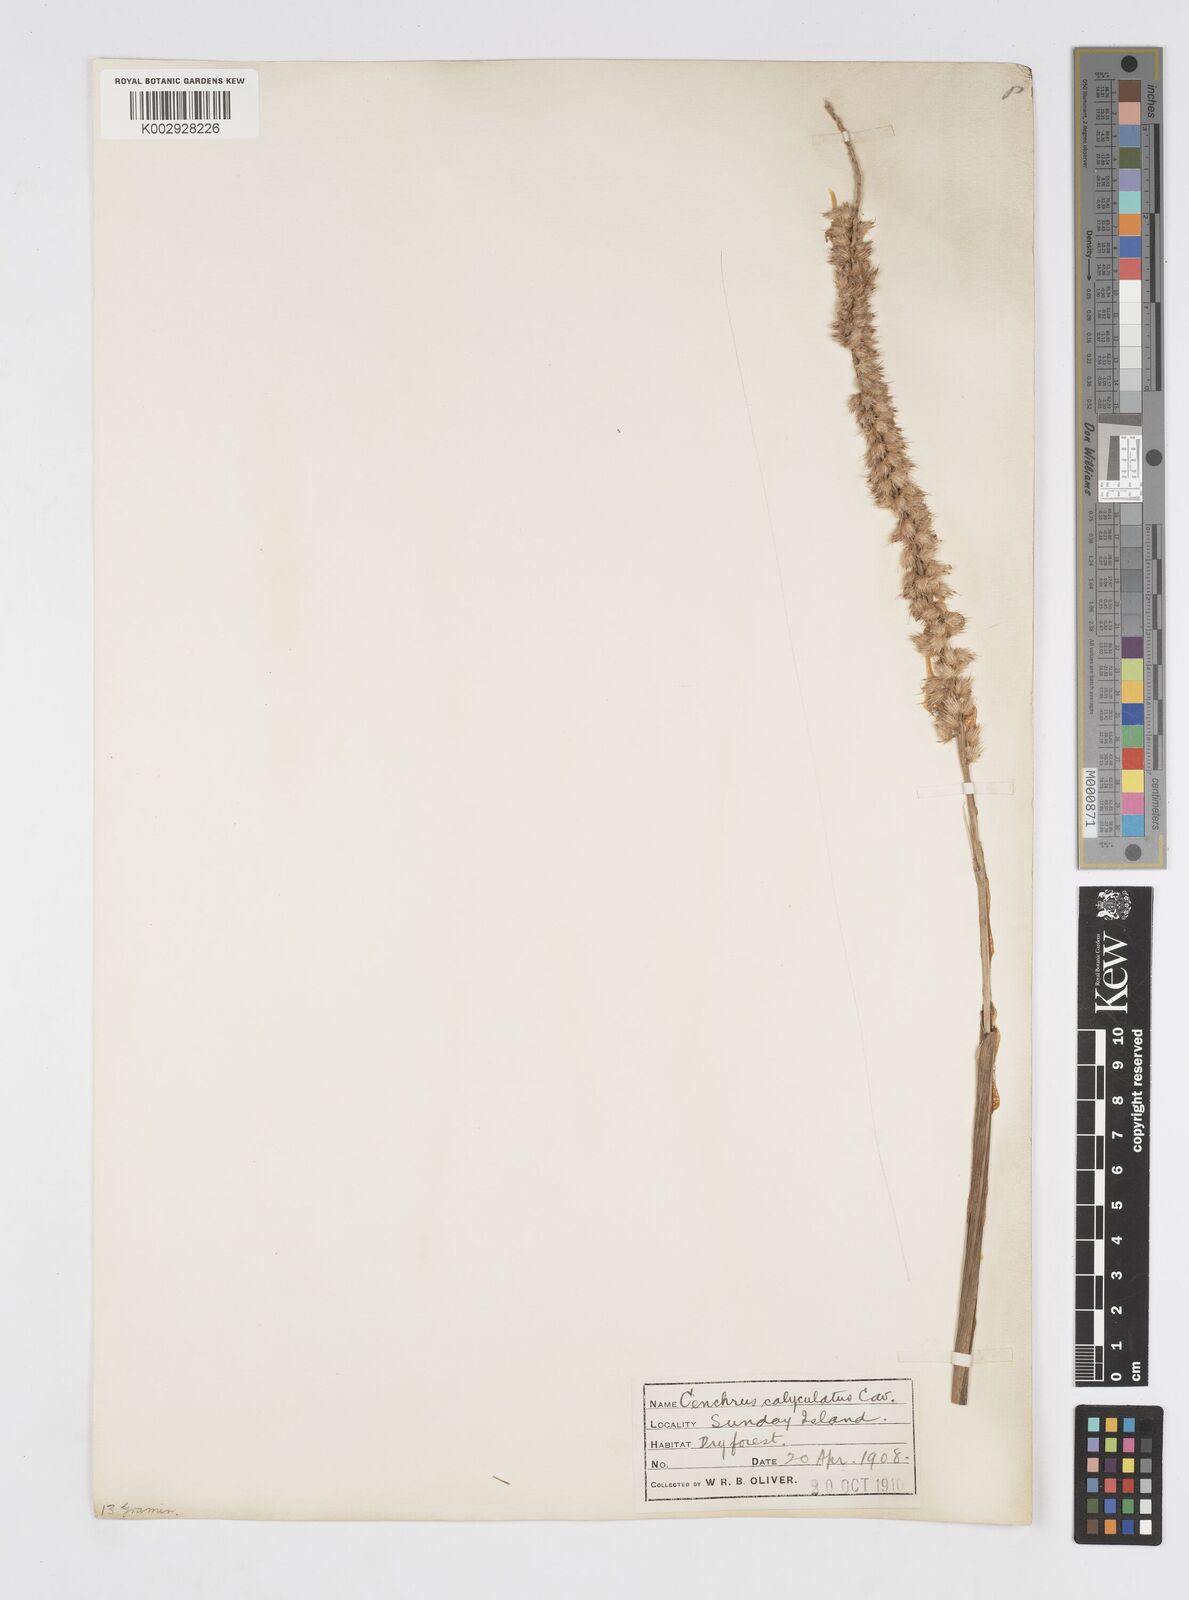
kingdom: Plantae
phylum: Tracheophyta
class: Liliopsida
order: Poales
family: Poaceae
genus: Cenchrus
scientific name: Cenchrus caliculatus
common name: Large bur grass
